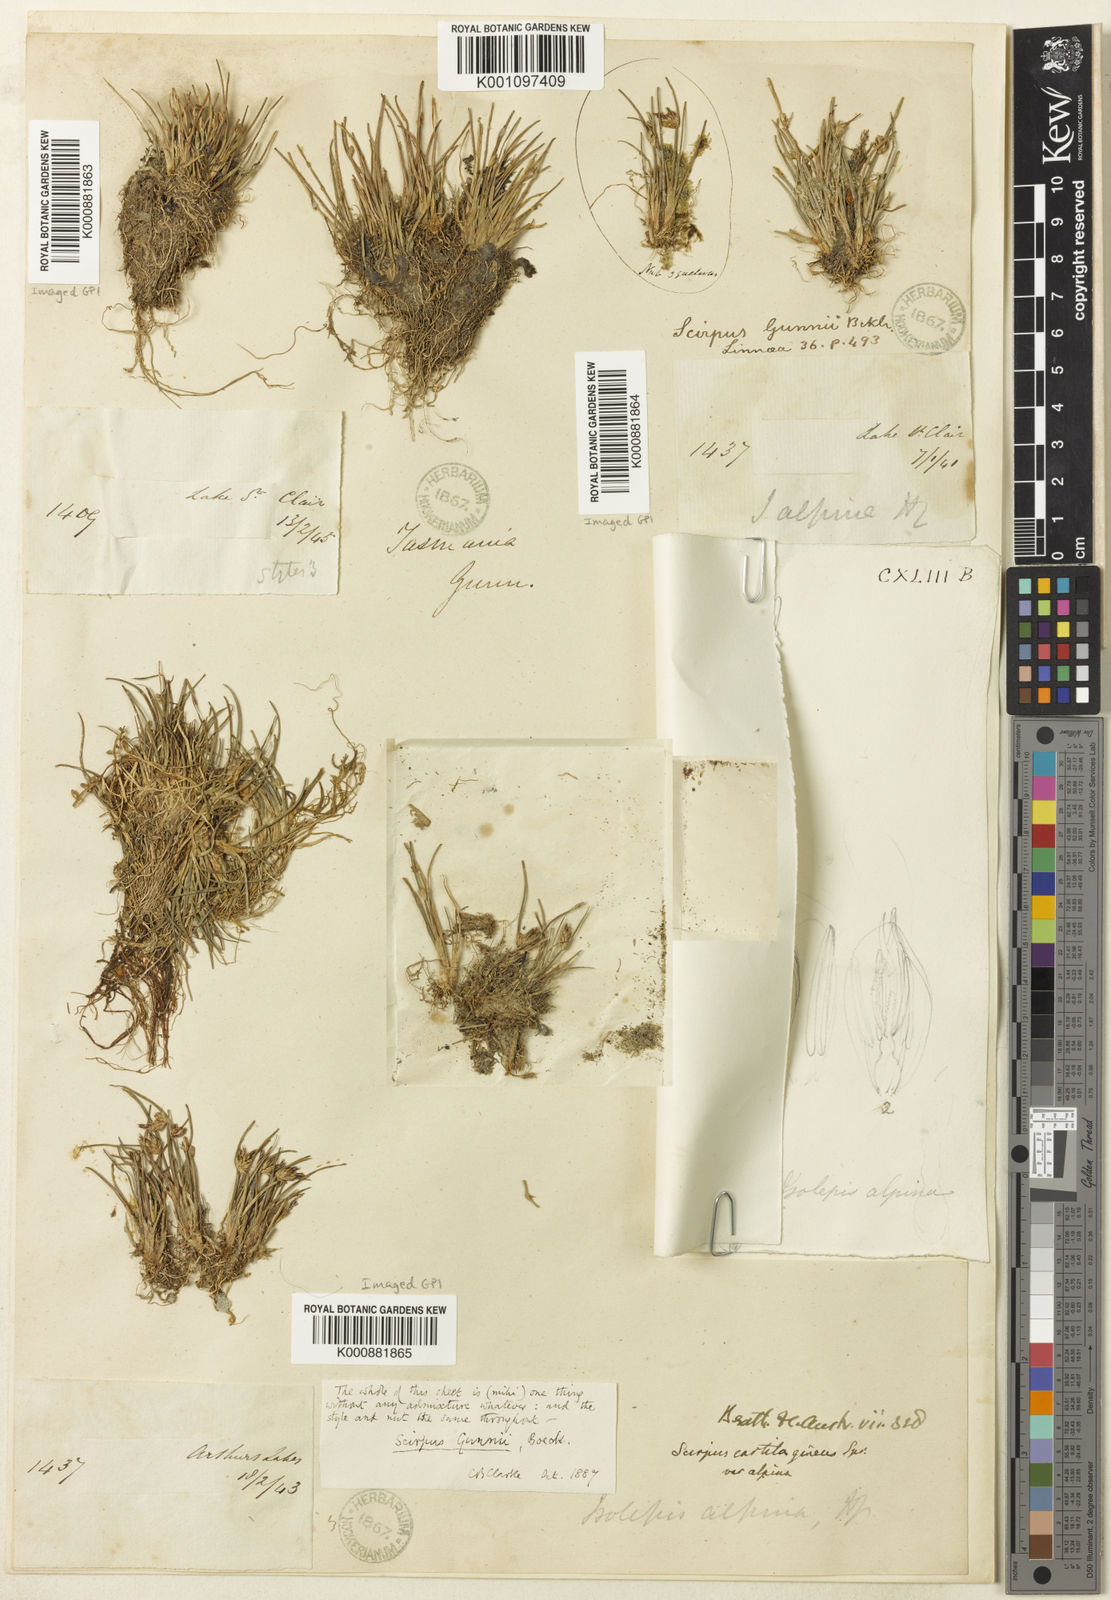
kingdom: Plantae
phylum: Tracheophyta
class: Liliopsida
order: Poales
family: Cyperaceae
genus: Isolepis
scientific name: Isolepis alpina
